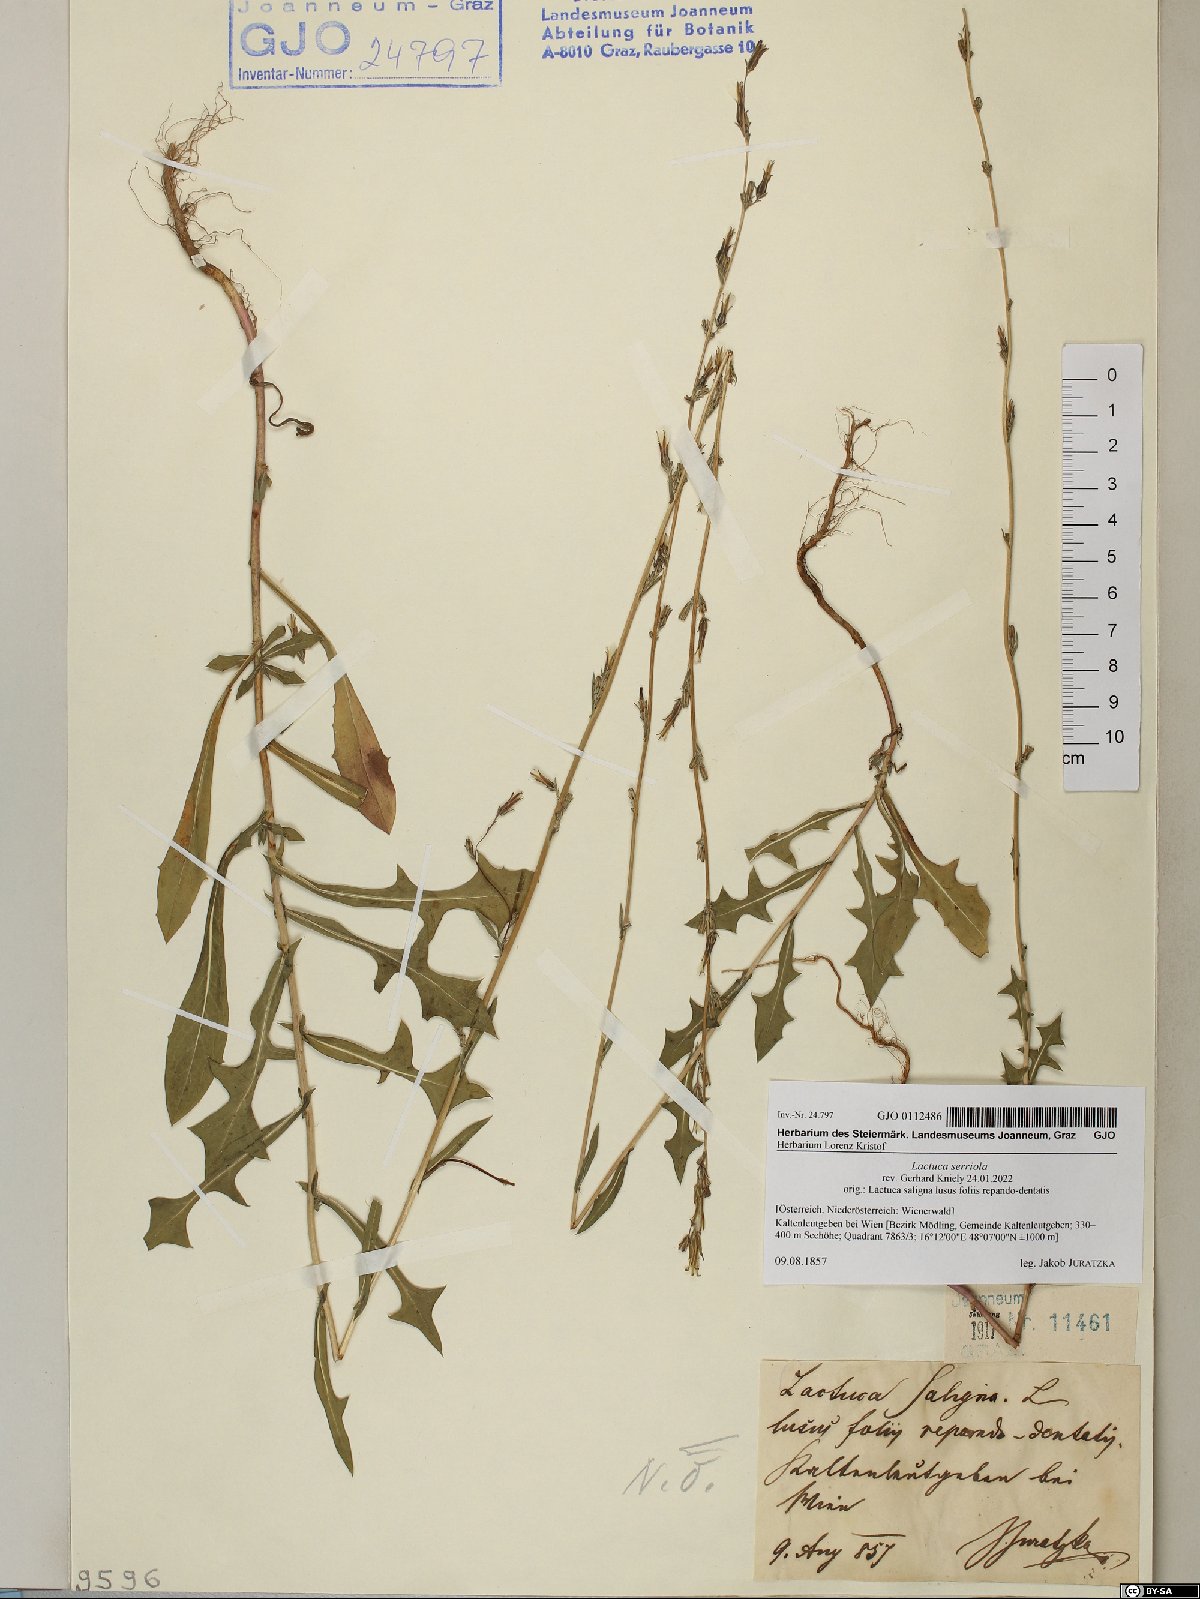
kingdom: Plantae
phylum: Tracheophyta
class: Magnoliopsida
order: Asterales
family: Asteraceae
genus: Lactuca
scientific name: Lactuca serriola
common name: Prickly lettuce
